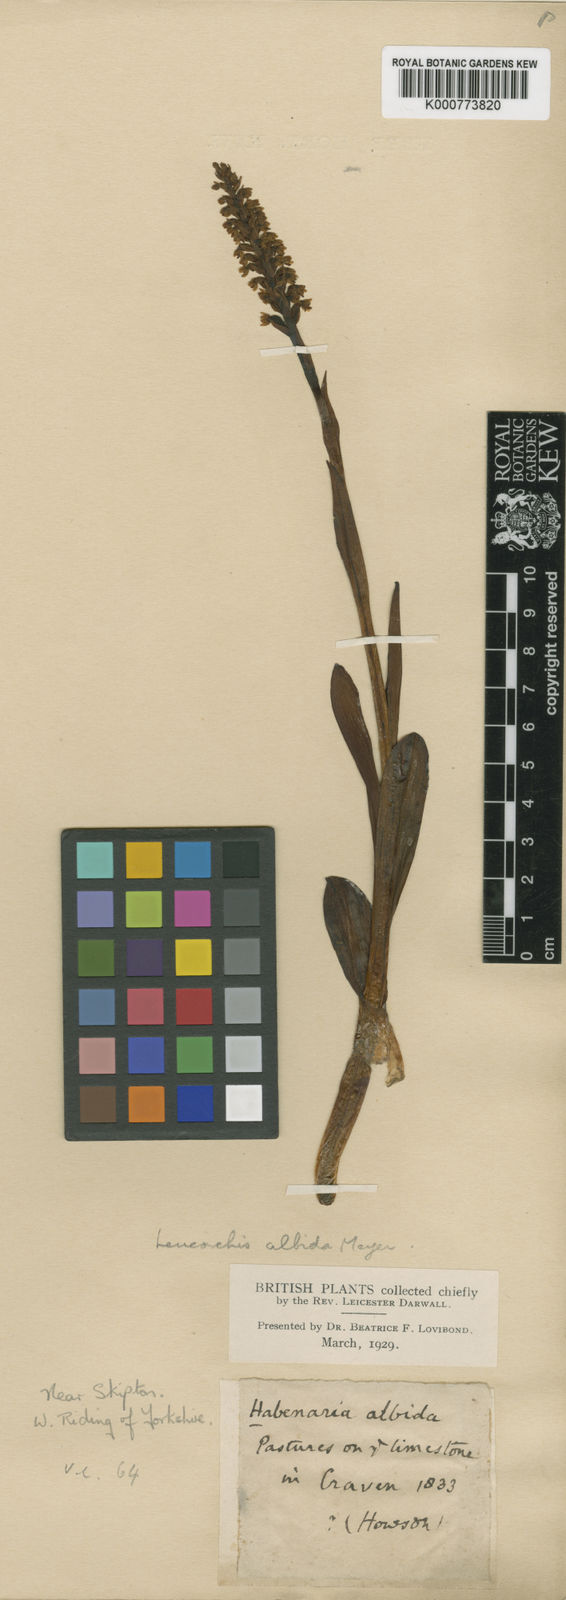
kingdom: Plantae
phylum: Tracheophyta
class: Liliopsida
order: Asparagales
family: Orchidaceae
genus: Pseudorchis
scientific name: Pseudorchis
